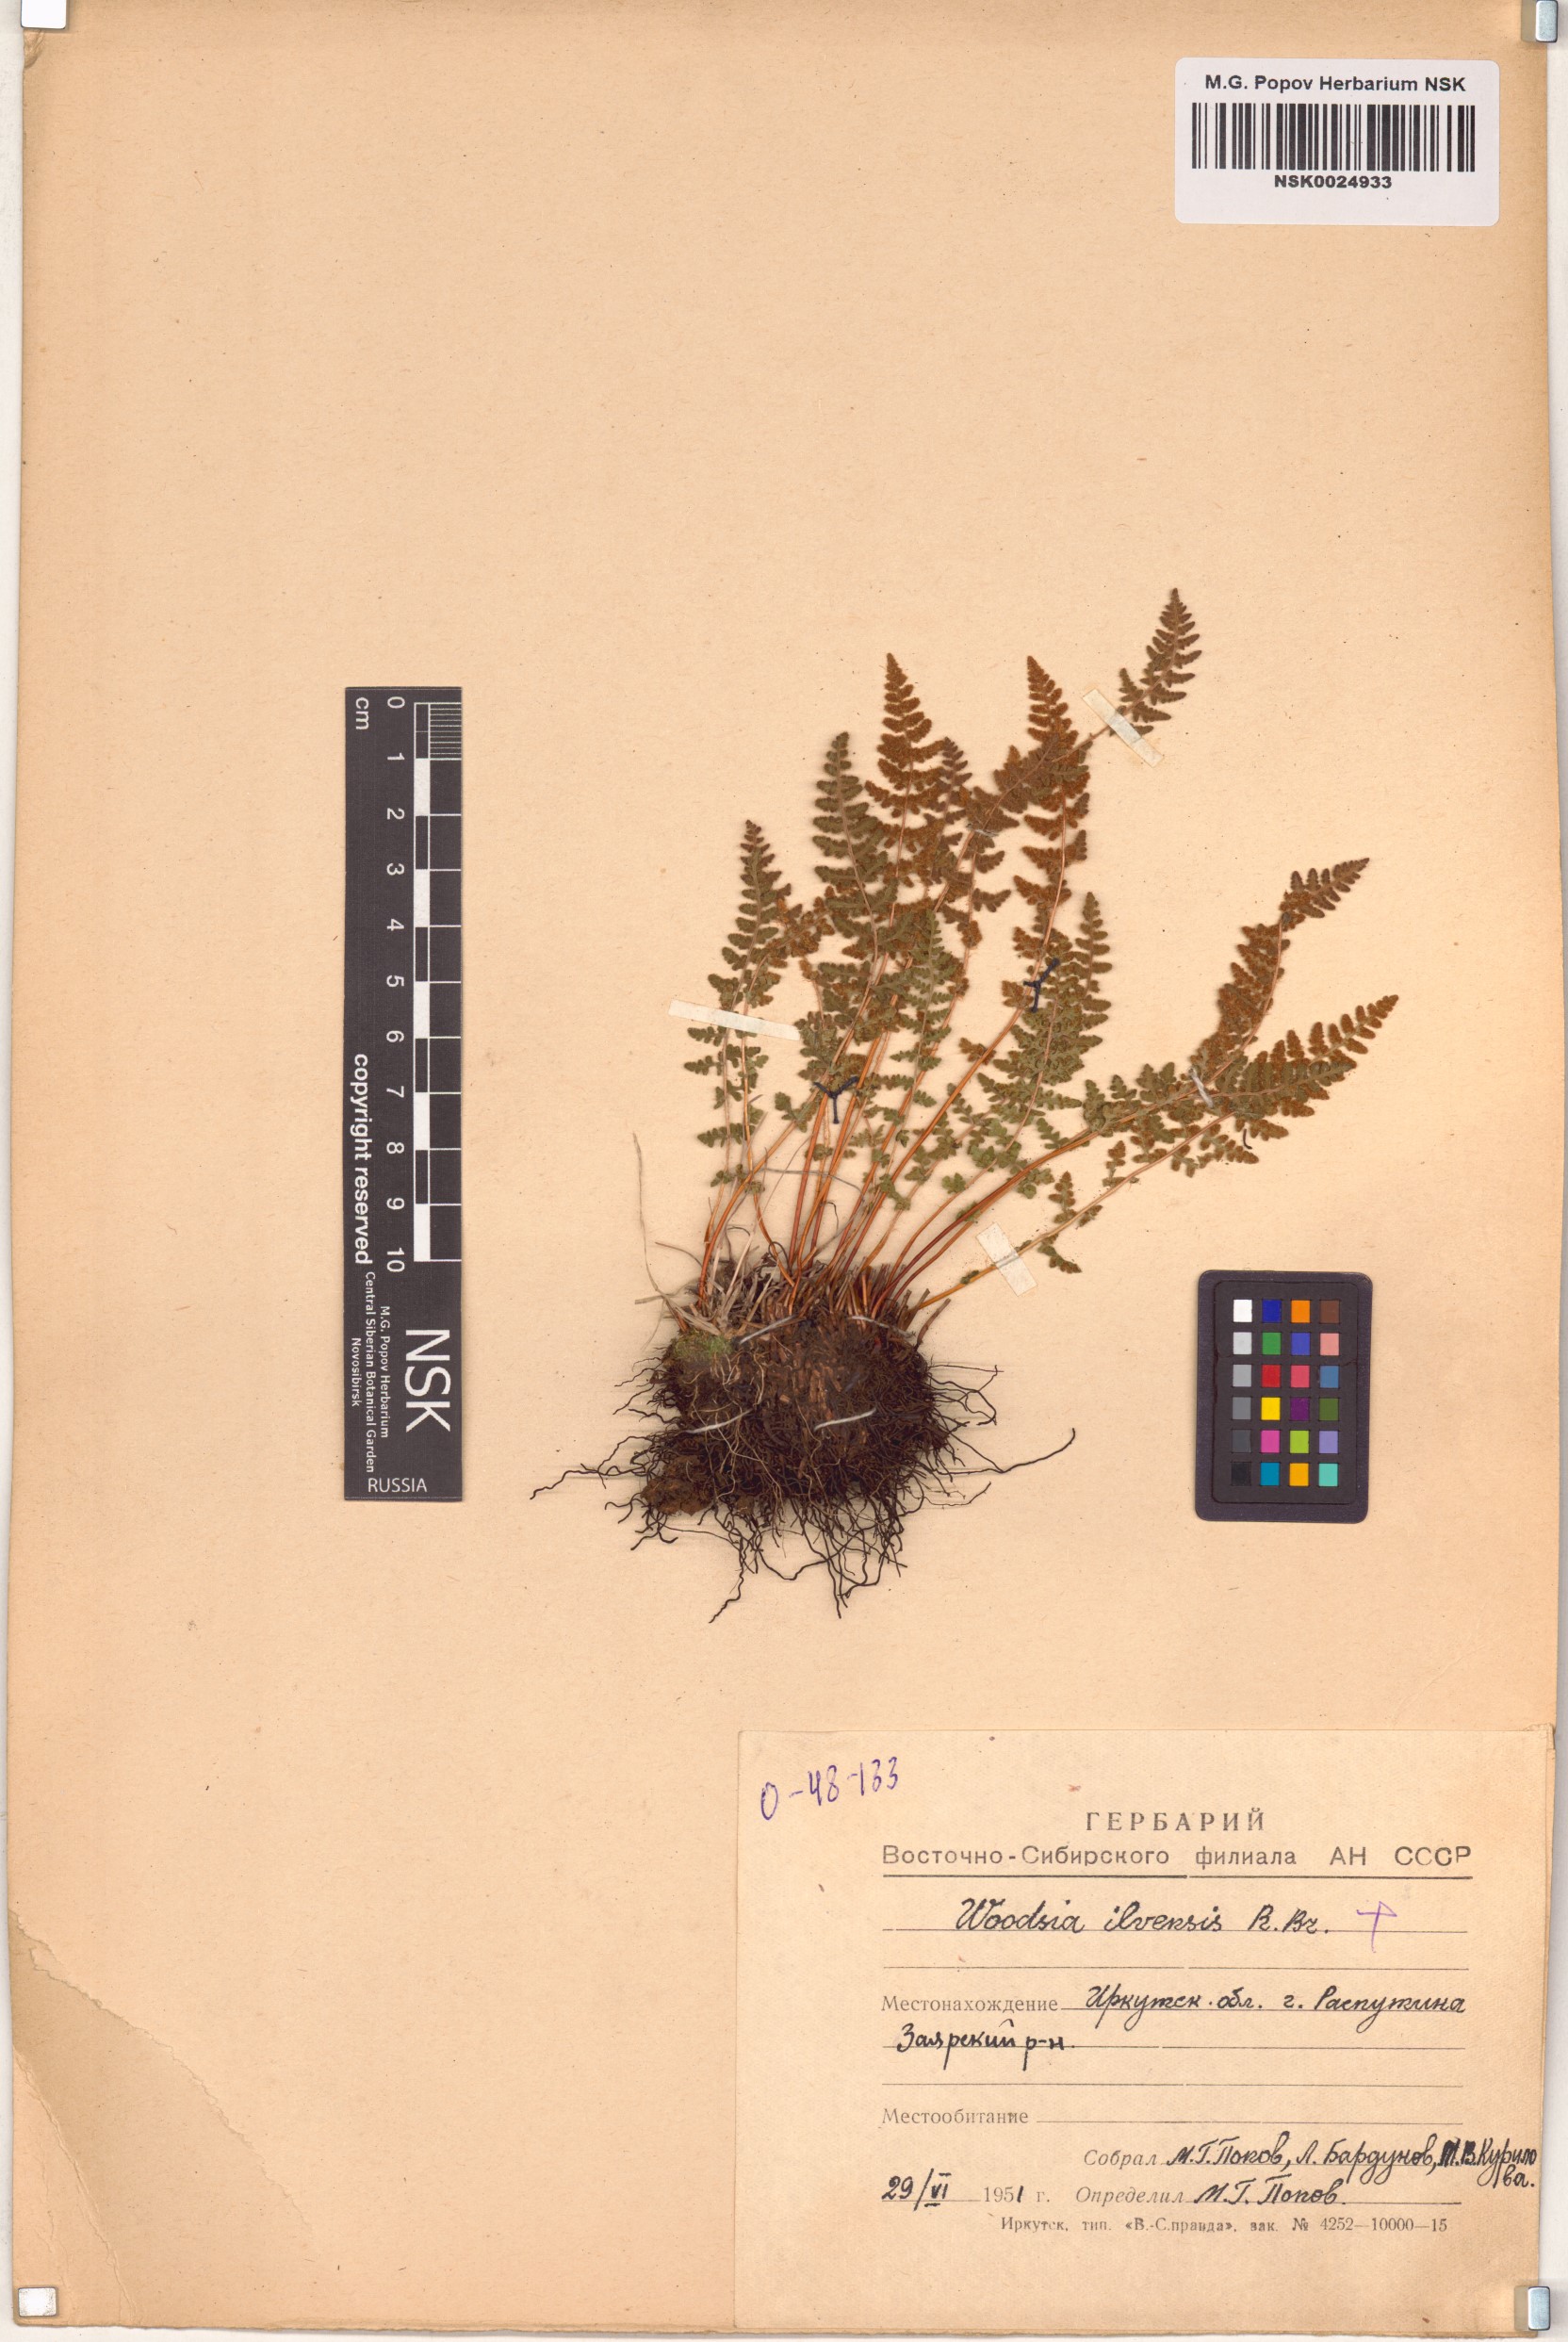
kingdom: Plantae
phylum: Tracheophyta
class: Polypodiopsida
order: Polypodiales
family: Woodsiaceae
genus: Woodsia
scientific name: Woodsia ilvensis
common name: Fragrant woodsia
